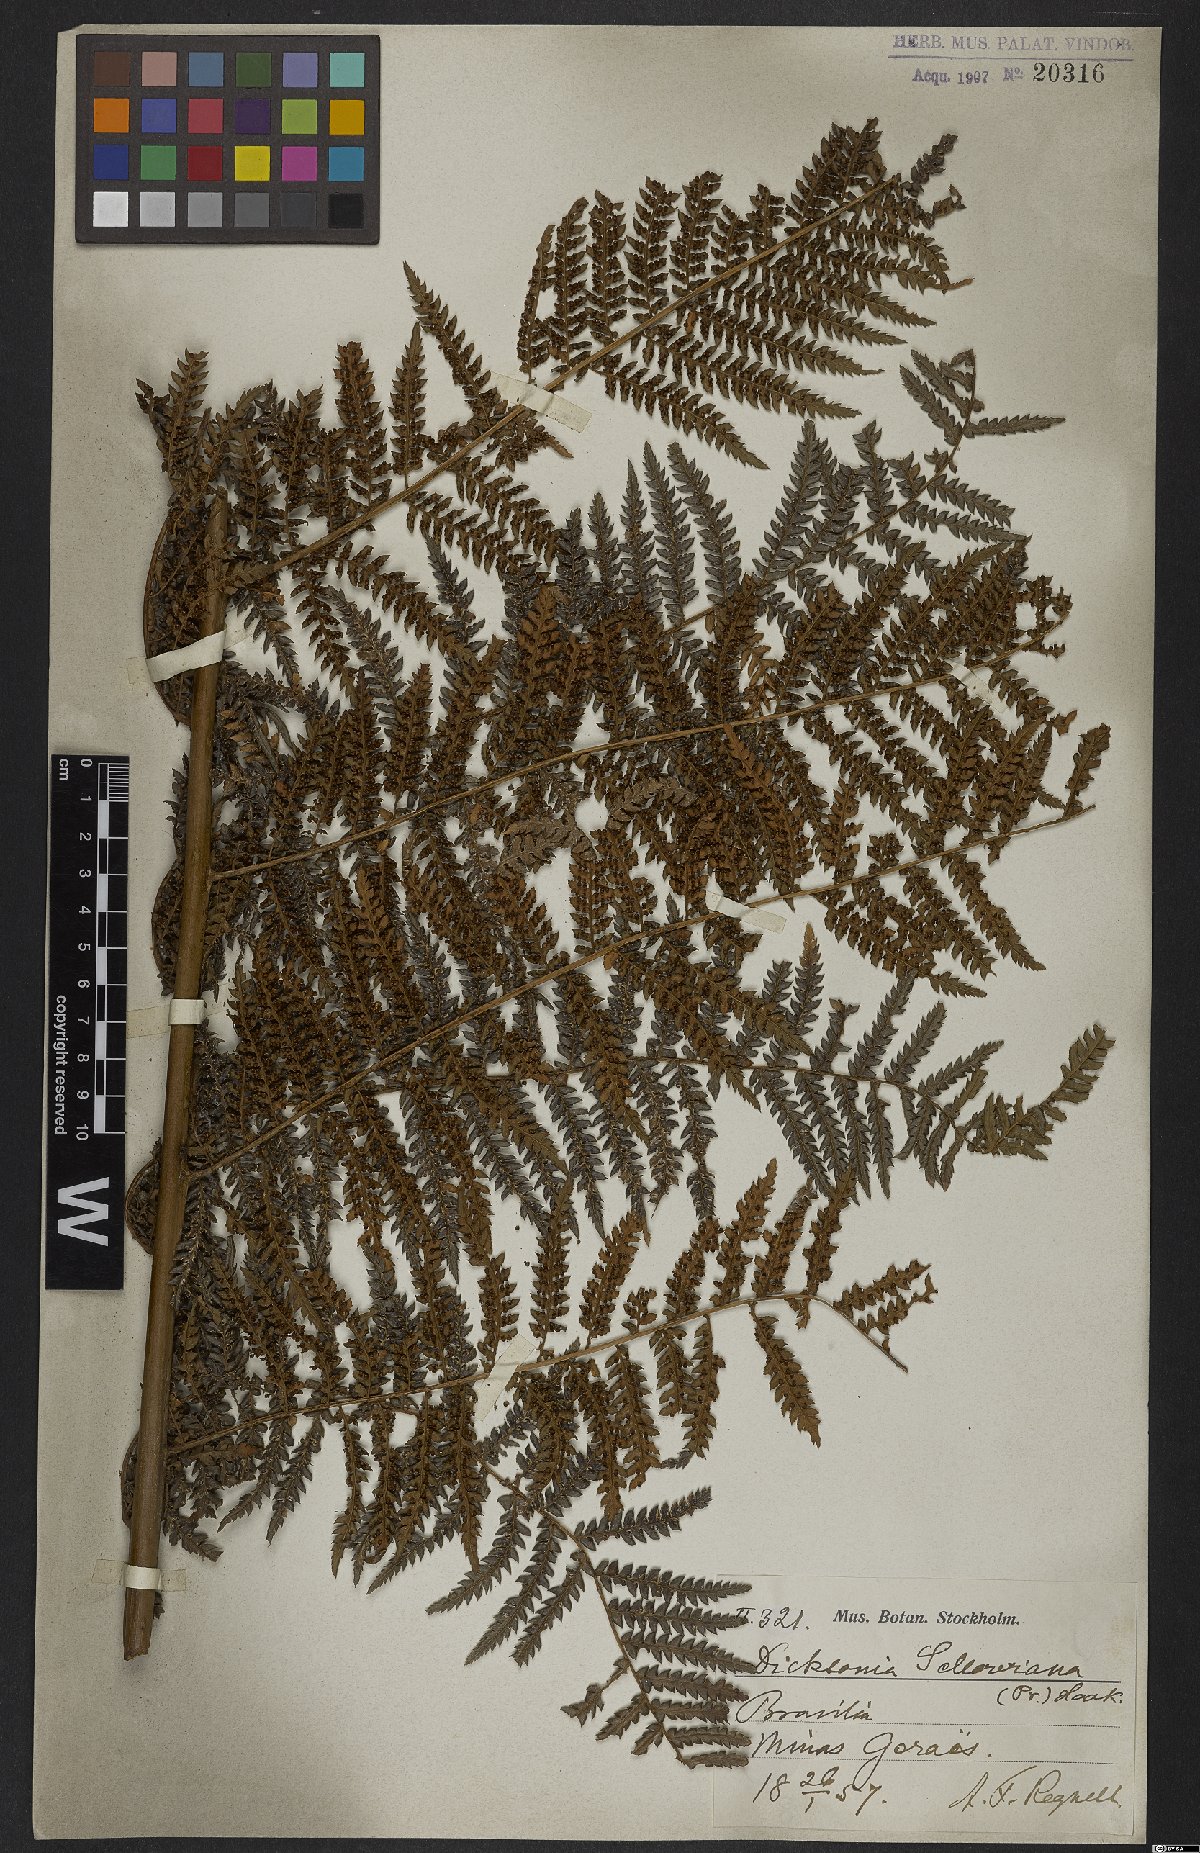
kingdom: Plantae
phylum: Tracheophyta
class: Polypodiopsida
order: Cyatheales
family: Dicksoniaceae
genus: Dicksonia
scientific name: Dicksonia sellowiana
